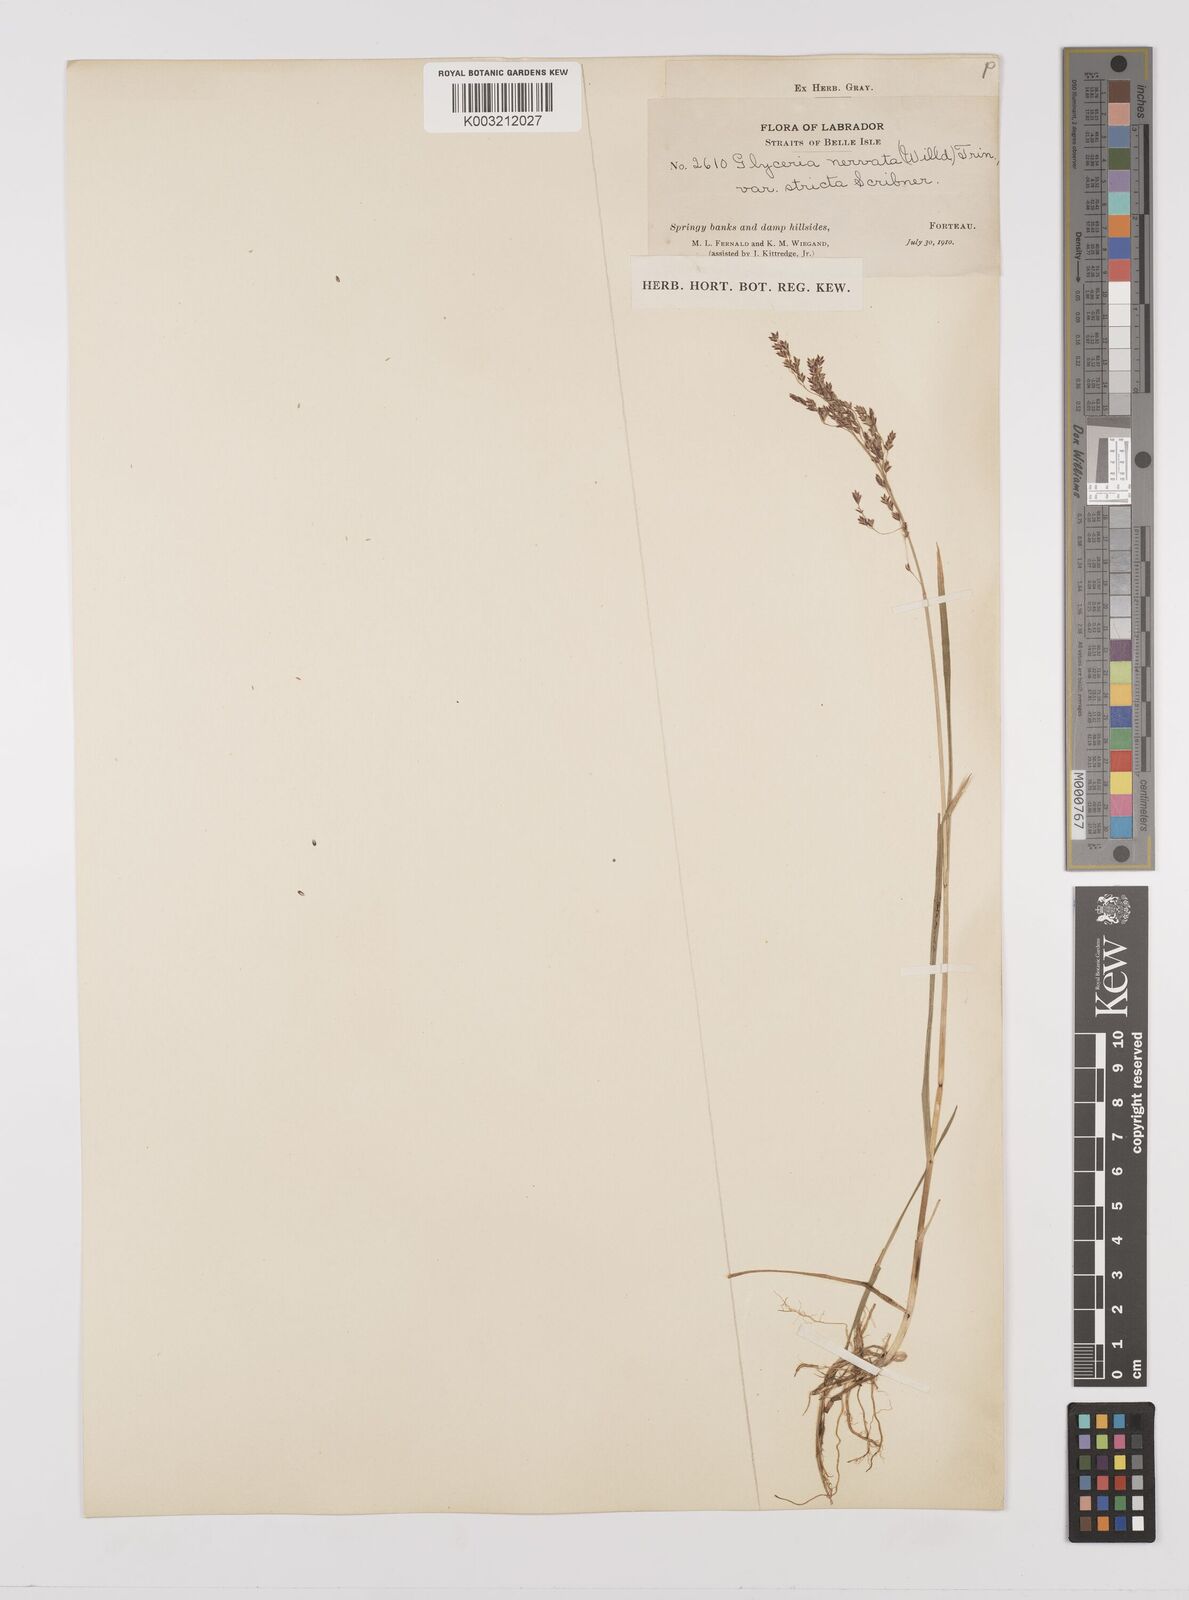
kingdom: Plantae
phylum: Tracheophyta
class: Liliopsida
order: Poales
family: Poaceae
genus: Glyceria
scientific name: Glyceria striata
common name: Fowl manna grass
